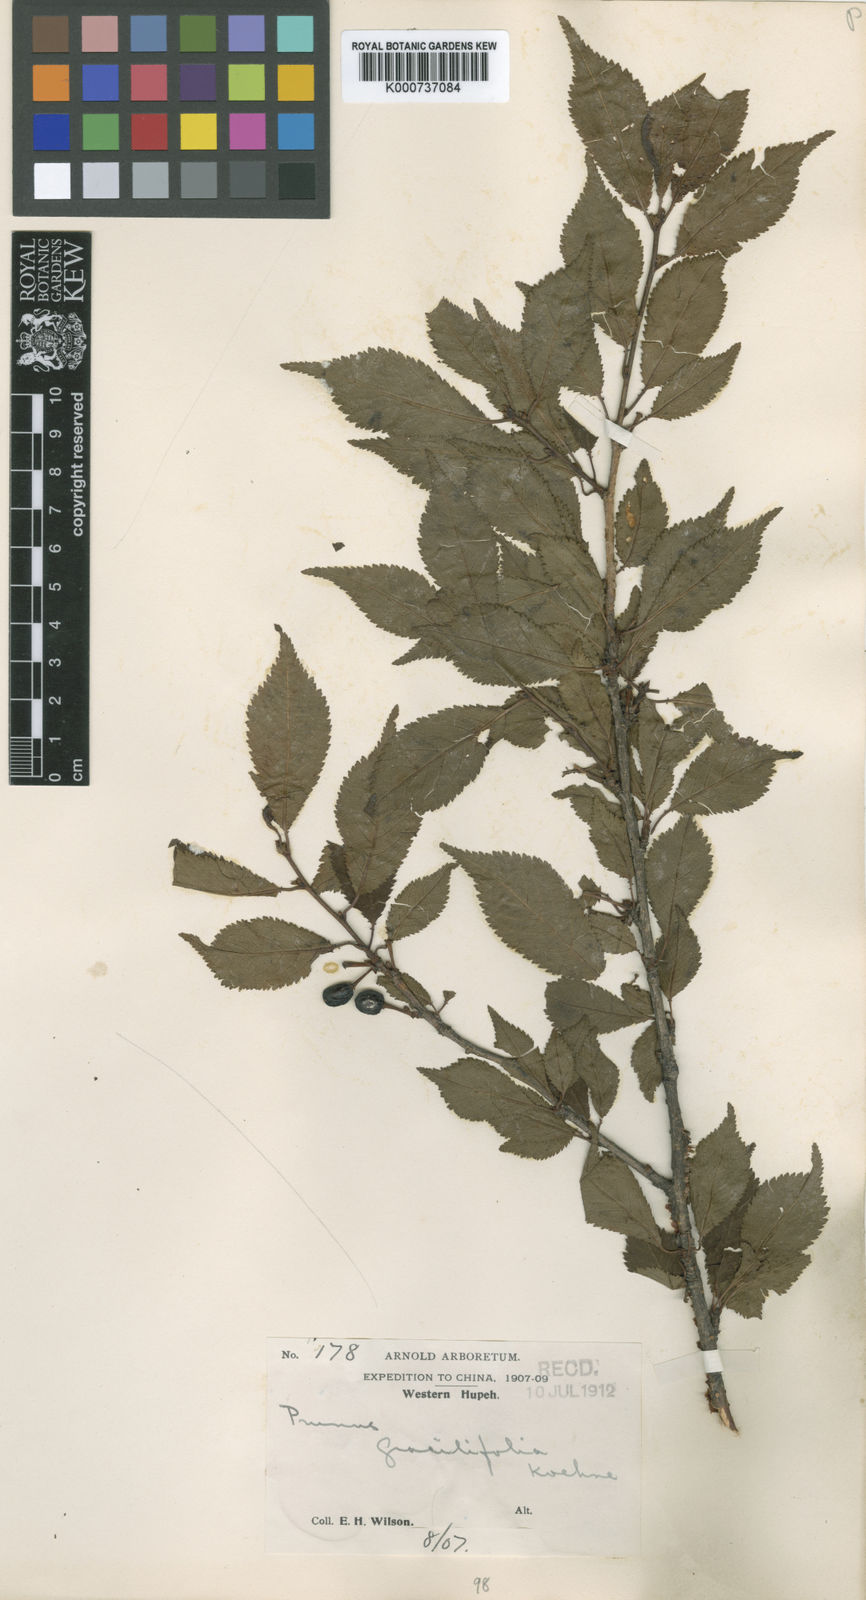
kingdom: Plantae
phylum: Tracheophyta
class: Magnoliopsida
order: Rosales
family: Rosaceae
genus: Prunus
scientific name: Prunus setulosa
